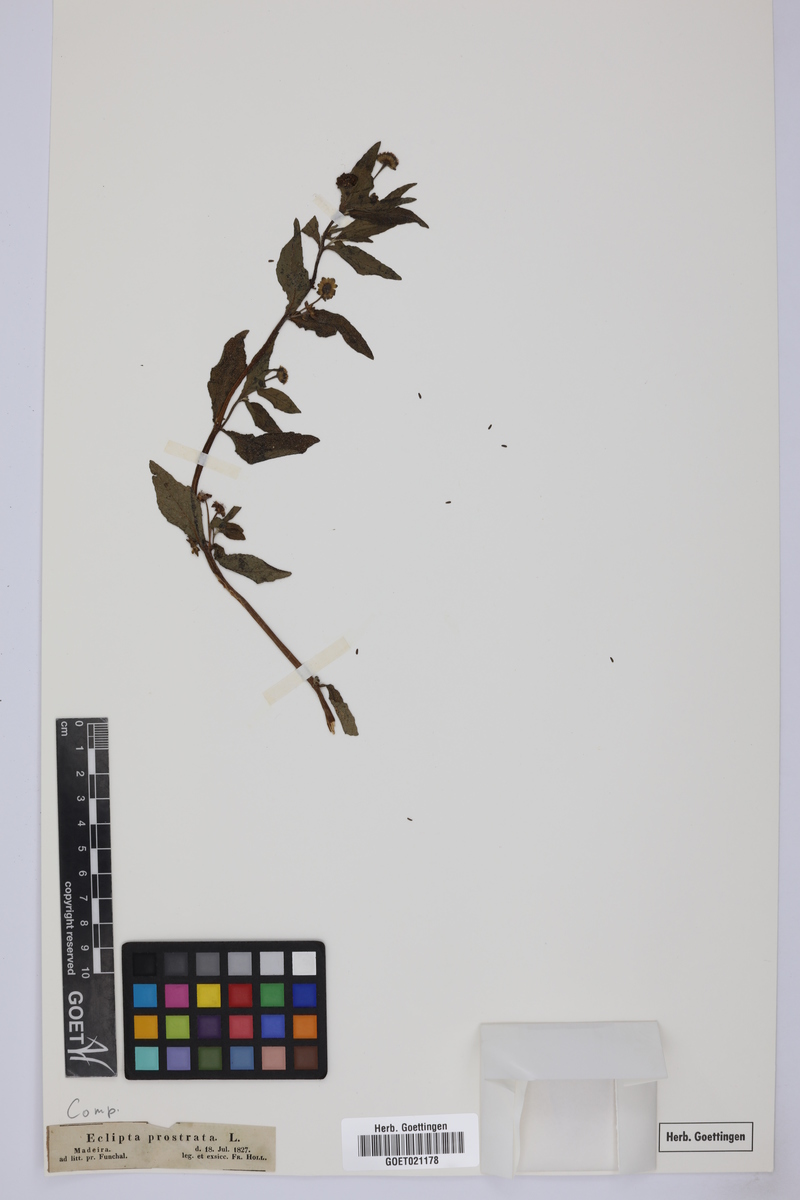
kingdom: Plantae
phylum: Tracheophyta
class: Magnoliopsida
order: Asterales
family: Asteraceae
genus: Eclipta
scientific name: Eclipta prostrata
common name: False daisy
